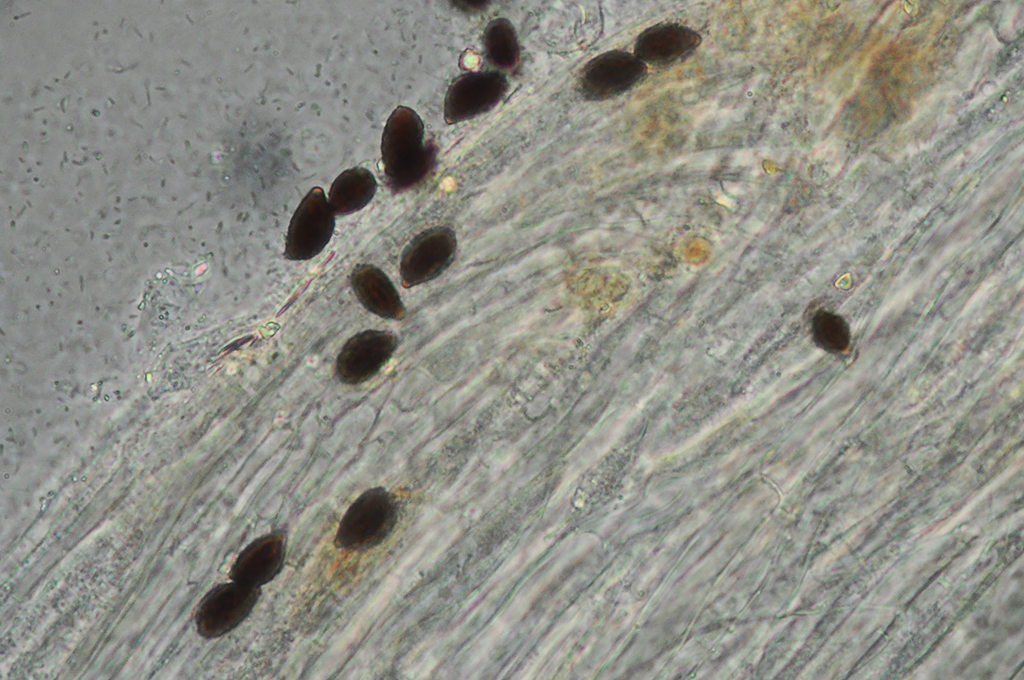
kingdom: Fungi
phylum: Basidiomycota
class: Agaricomycetes
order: Agaricales
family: Psathyrellaceae
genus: Coprinopsis
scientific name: Coprinopsis insignis
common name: stor blækhat
